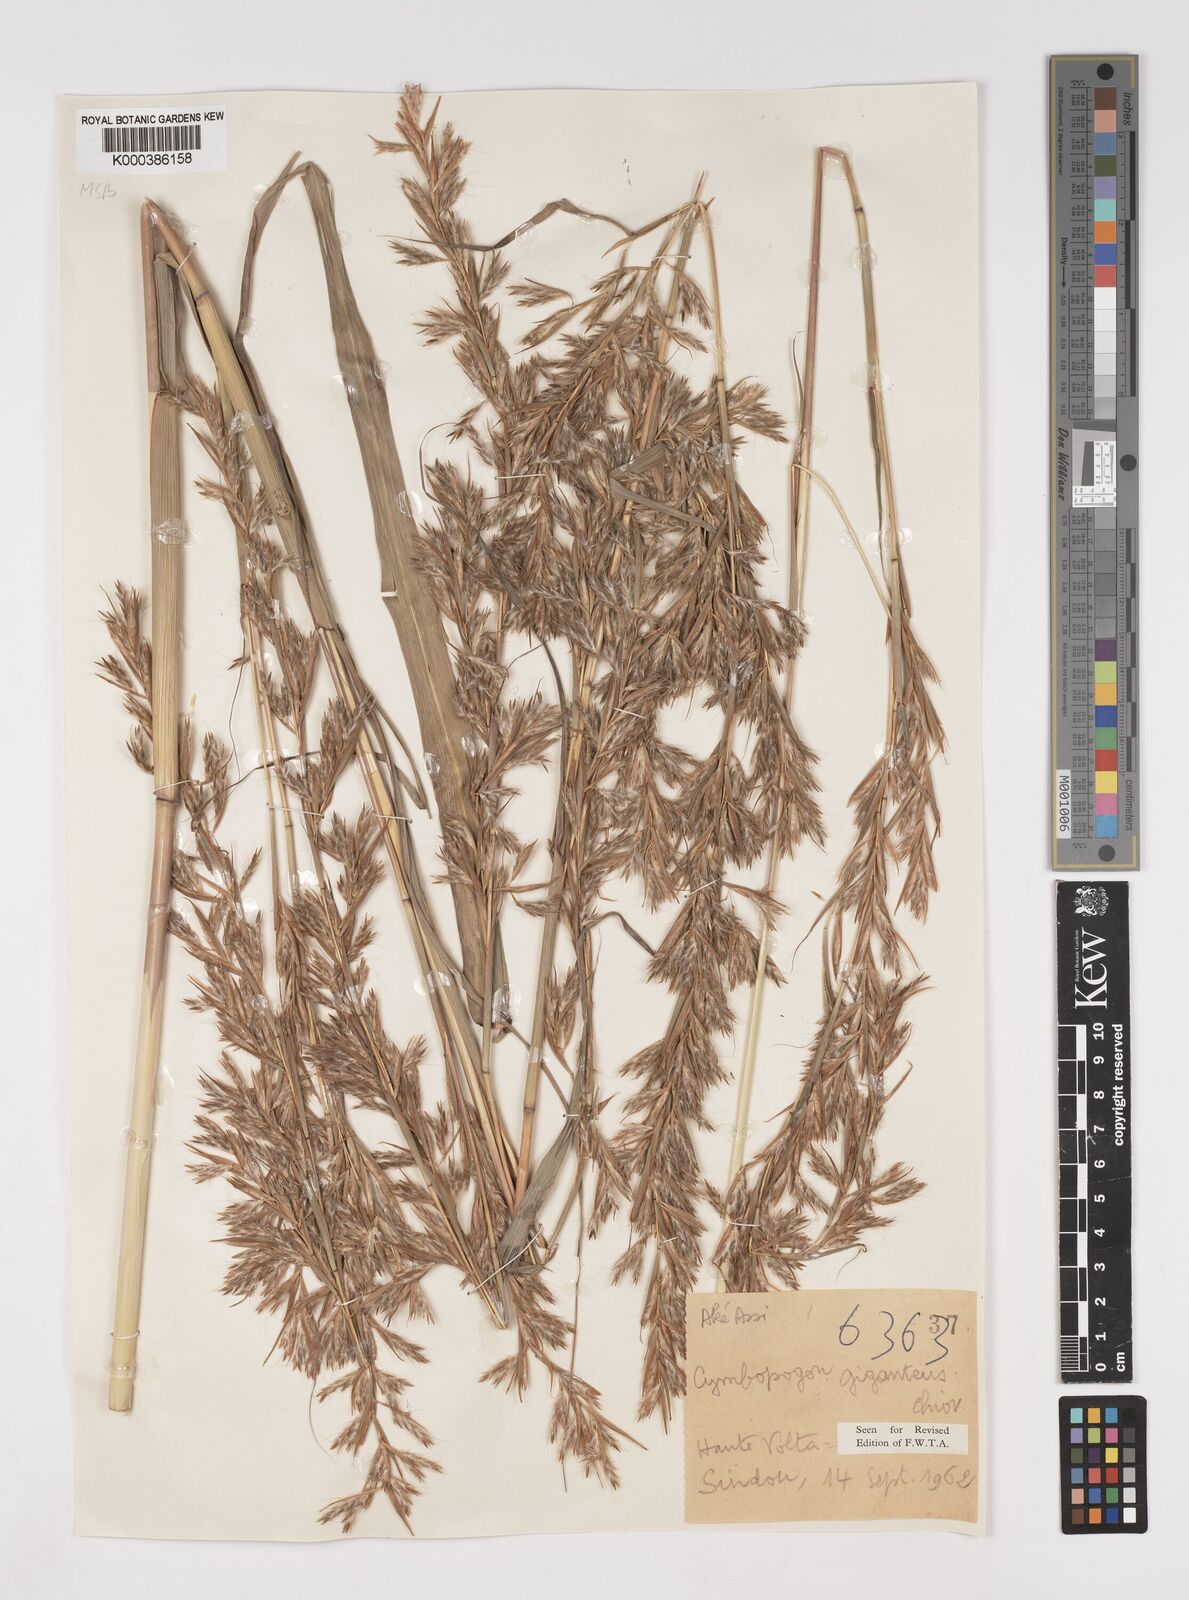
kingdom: Plantae
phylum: Tracheophyta
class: Liliopsida
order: Poales
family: Poaceae
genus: Cymbopogon
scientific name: Cymbopogon giganteus
